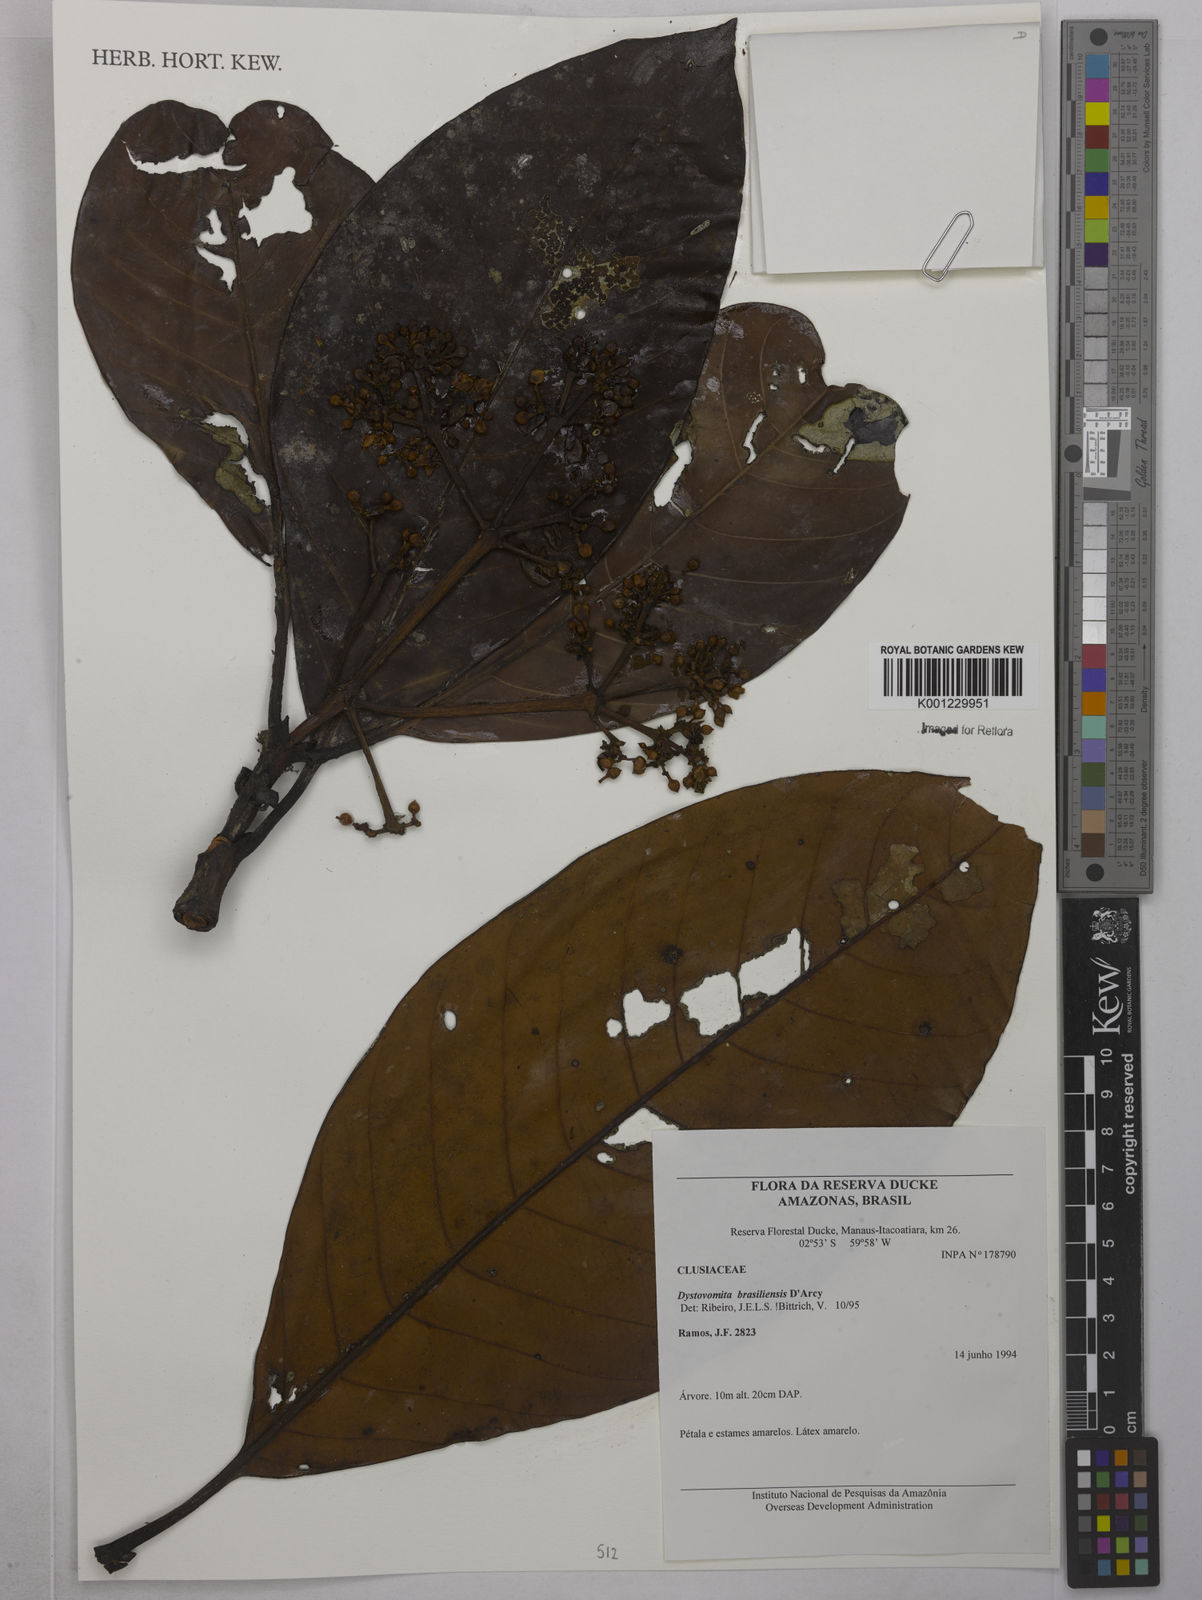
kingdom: Plantae
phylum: Tracheophyta
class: Magnoliopsida
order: Malpighiales
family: Clusiaceae
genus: Tovomita
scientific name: Tovomita hopkinsii
